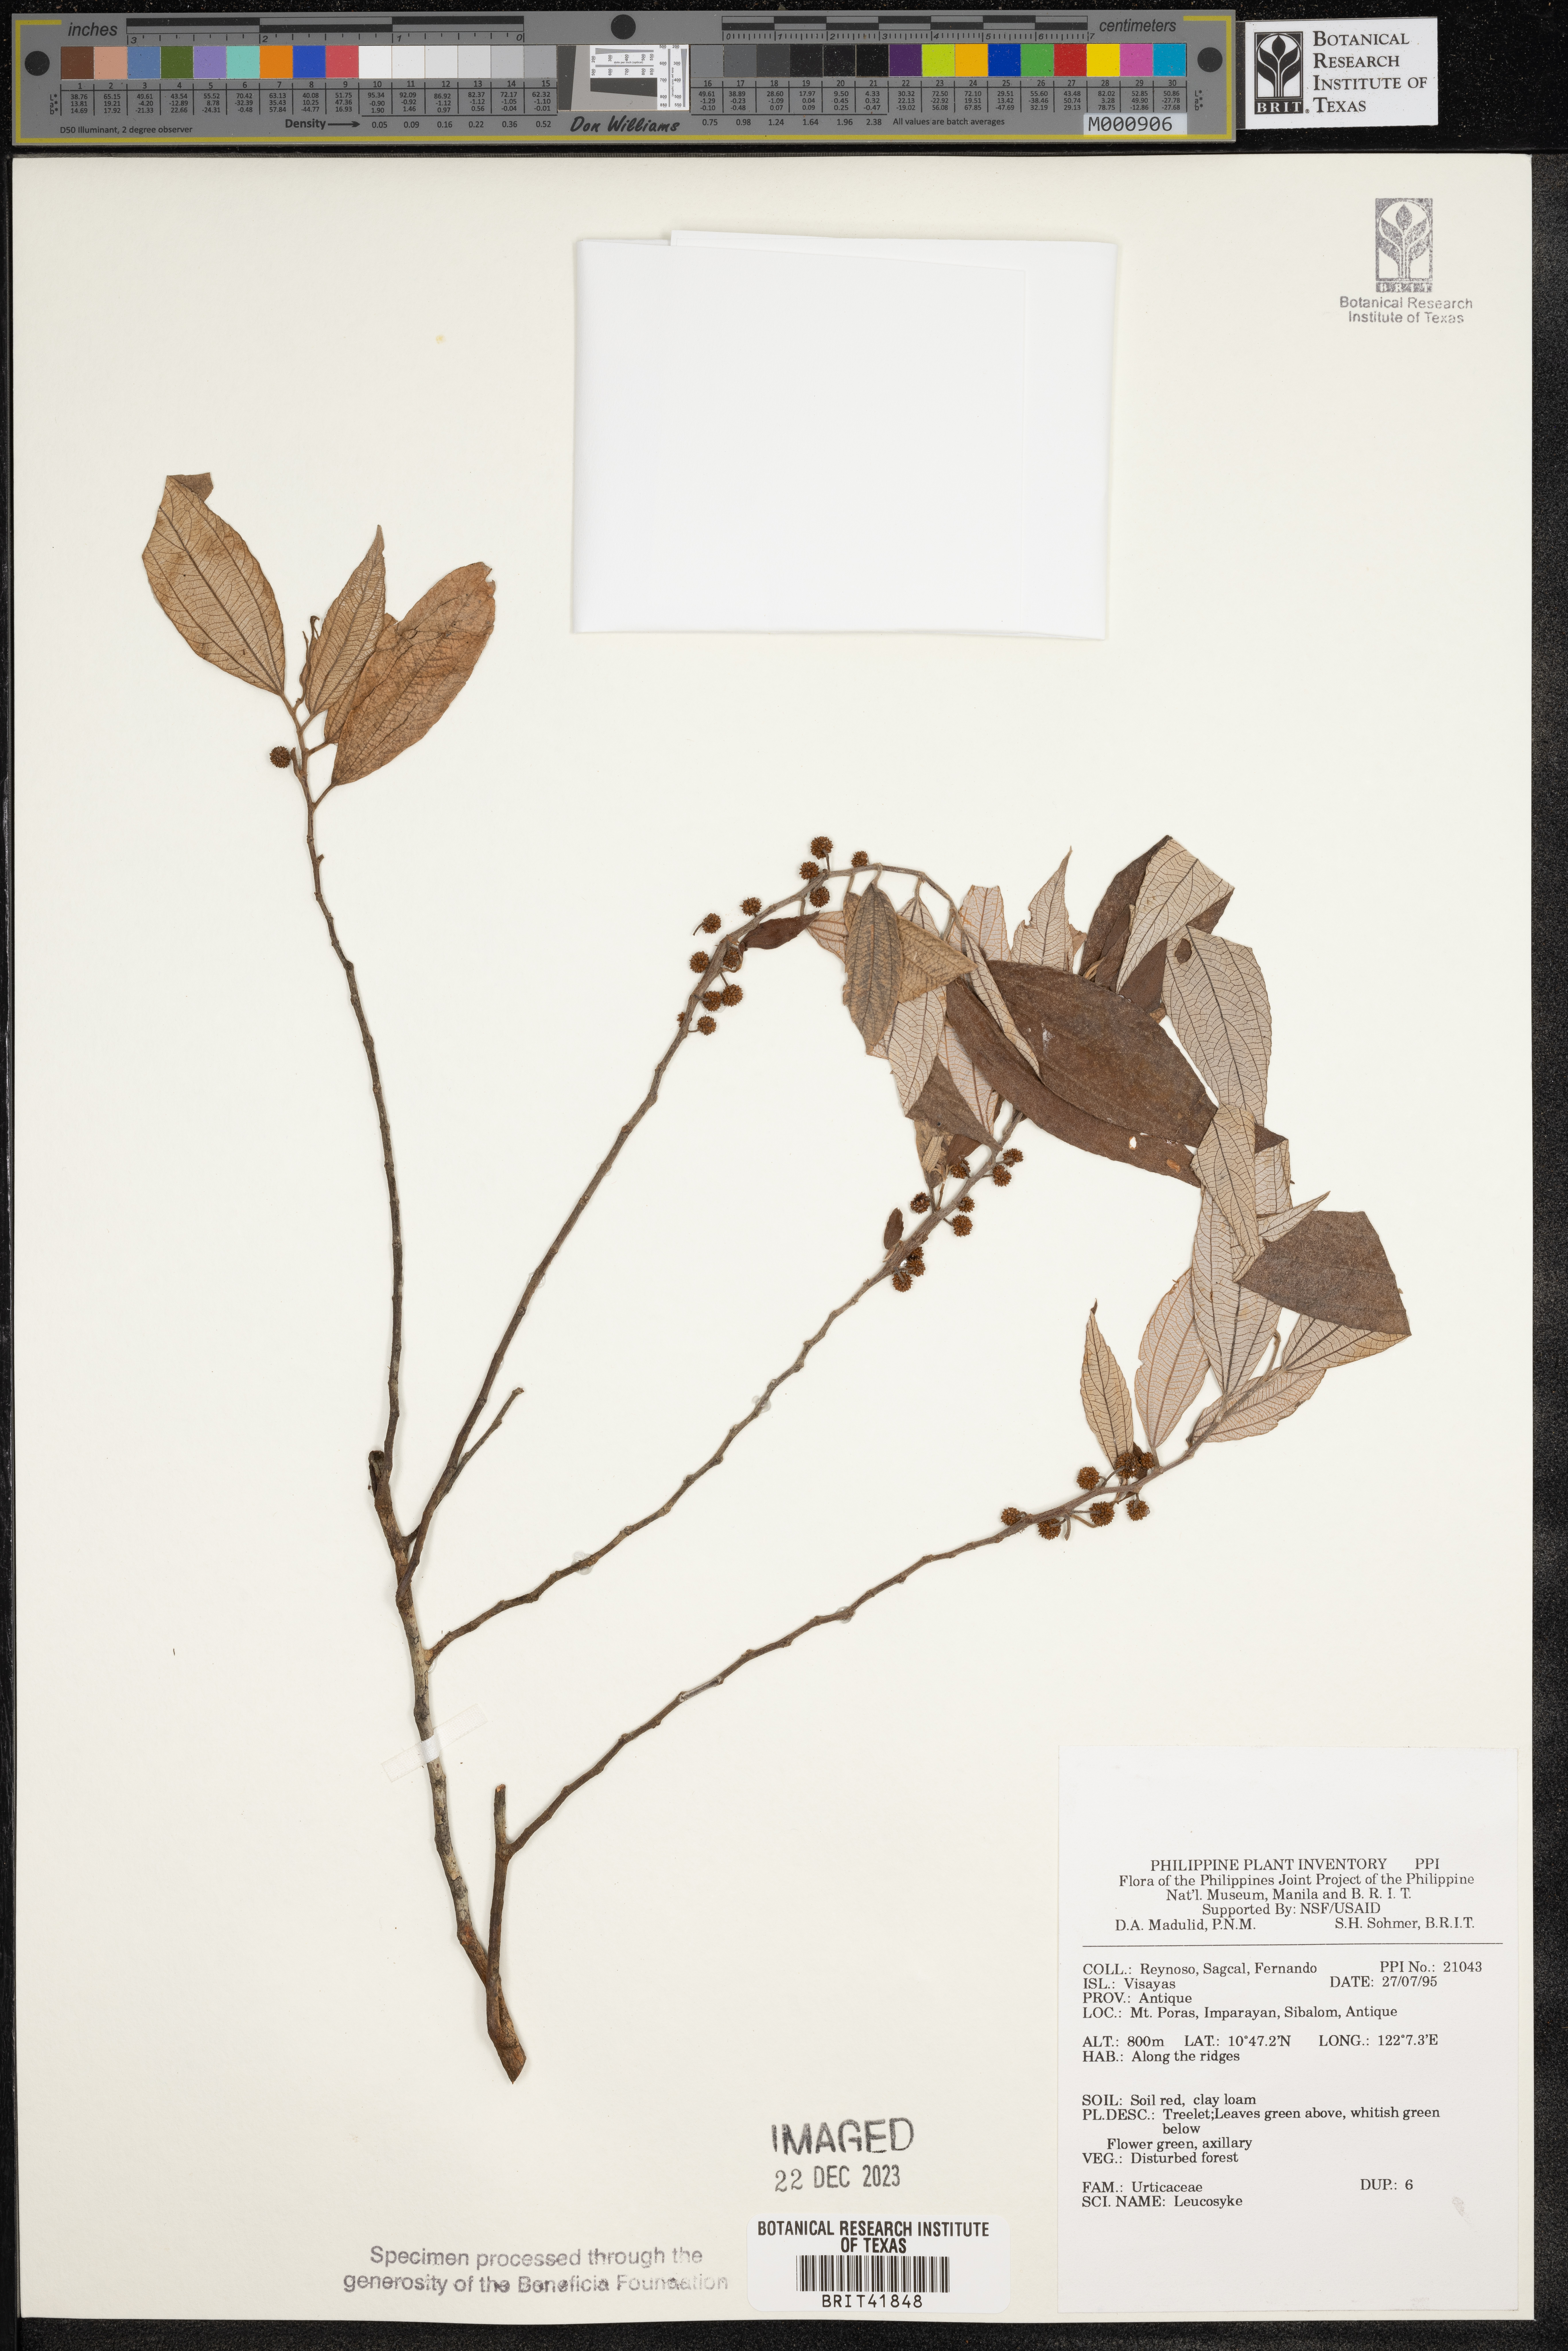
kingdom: Plantae
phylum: Tracheophyta
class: Magnoliopsida
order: Rosales
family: Urticaceae
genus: Leucosyke
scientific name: Leucosyke
